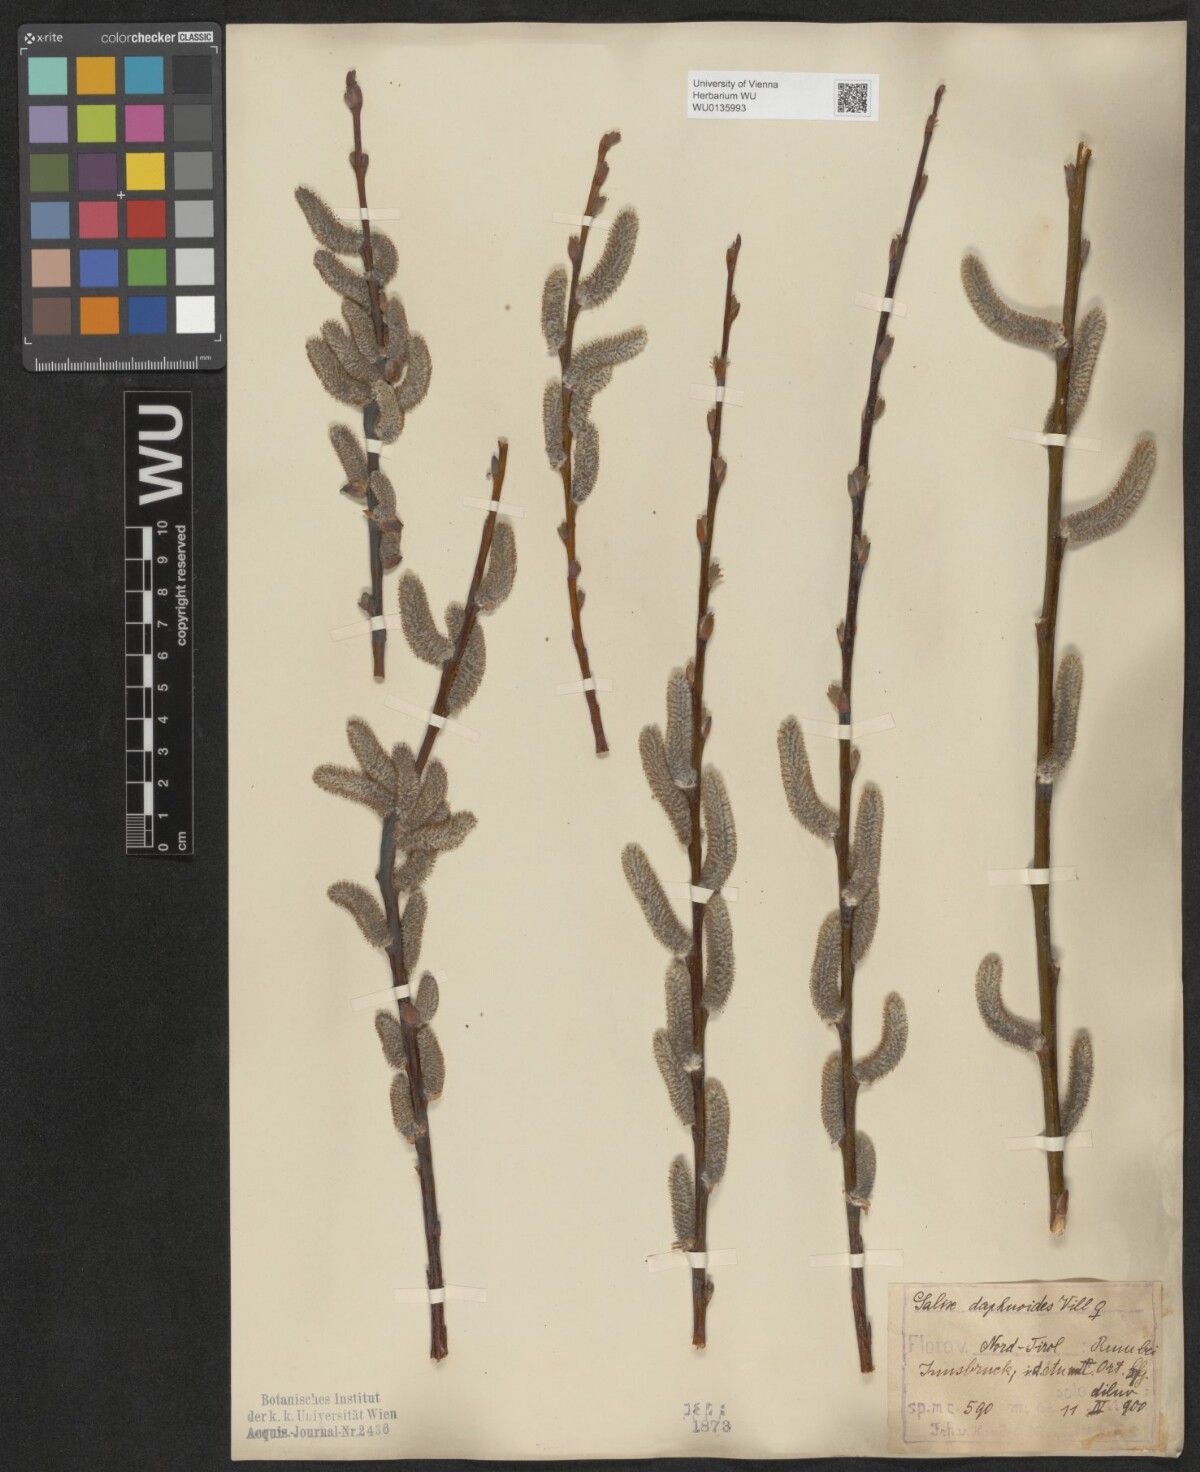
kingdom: Plantae
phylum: Tracheophyta
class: Magnoliopsida
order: Malpighiales
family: Salicaceae
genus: Salix
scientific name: Salix daphnoides
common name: European violet-willow
